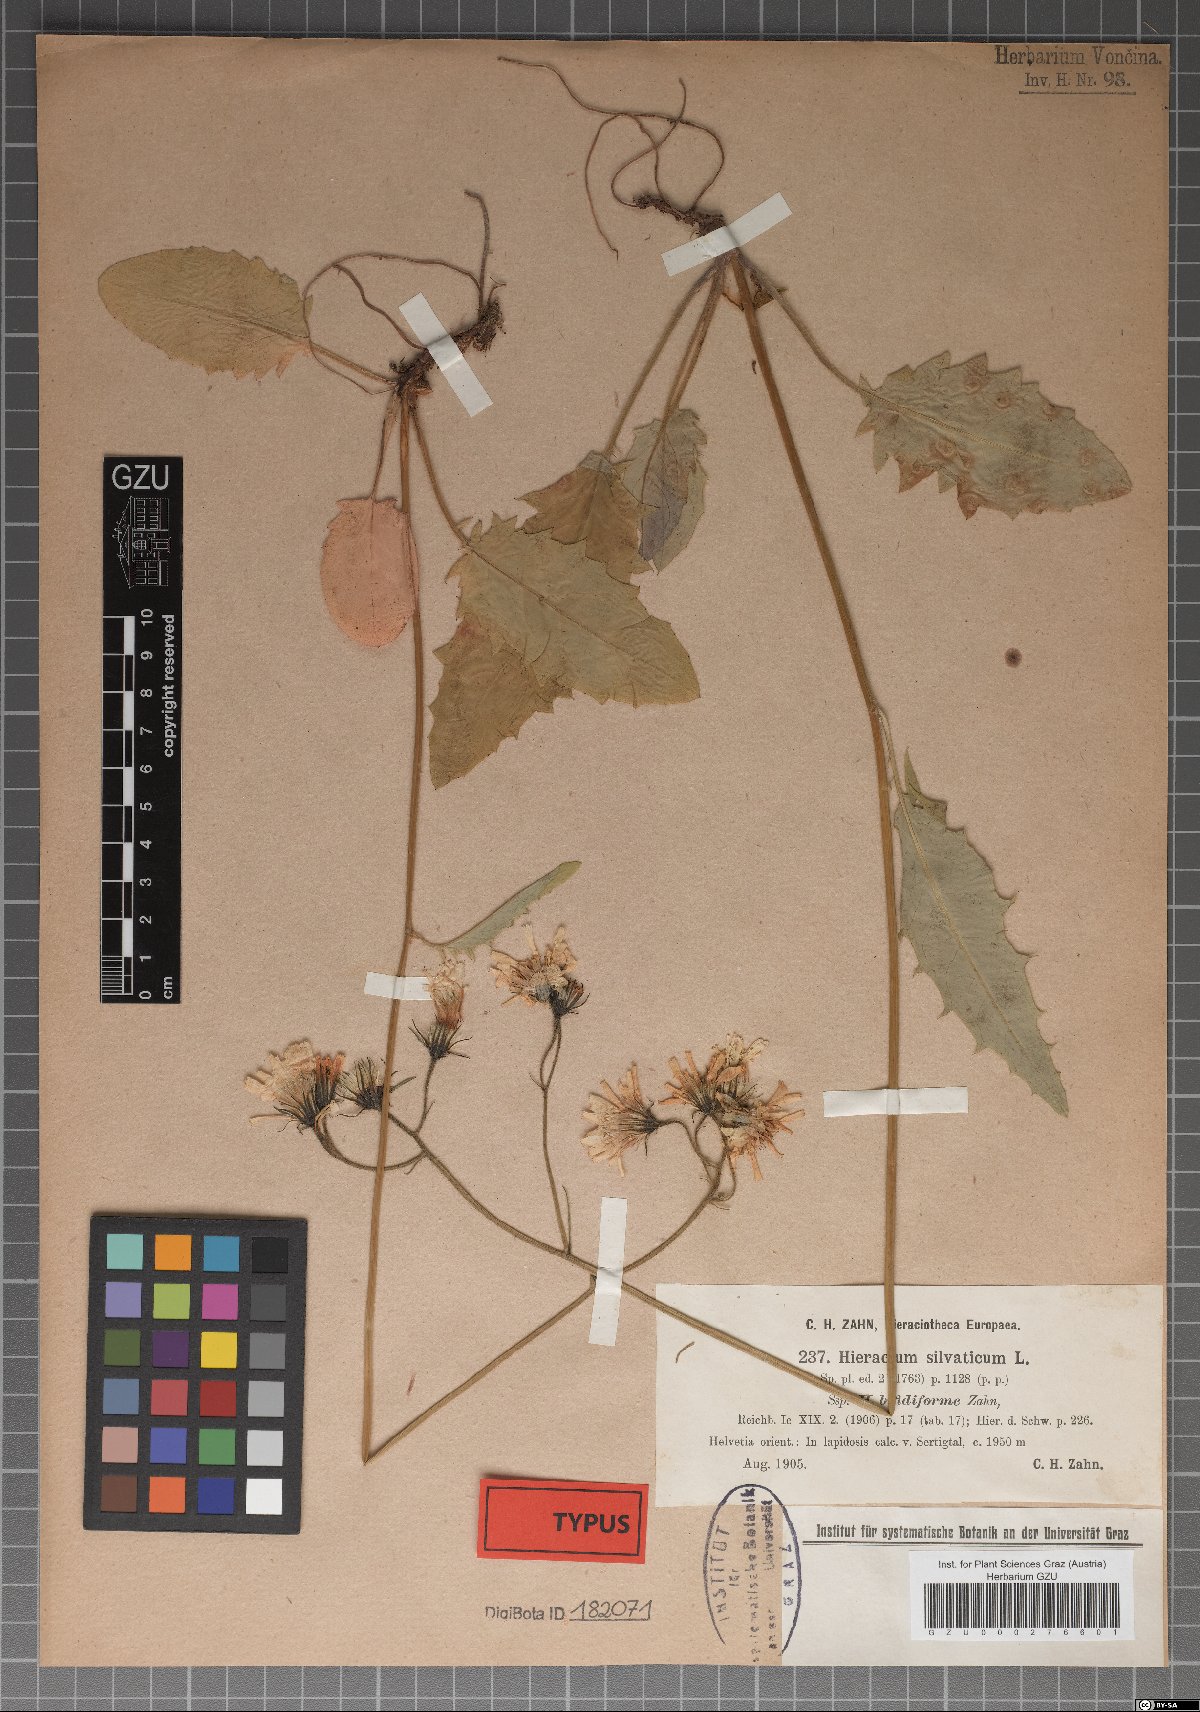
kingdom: Plantae
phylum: Tracheophyta
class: Magnoliopsida
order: Asterales
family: Asteraceae
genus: Hieracium
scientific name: Hieracium murorum
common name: Wall hawkweed
